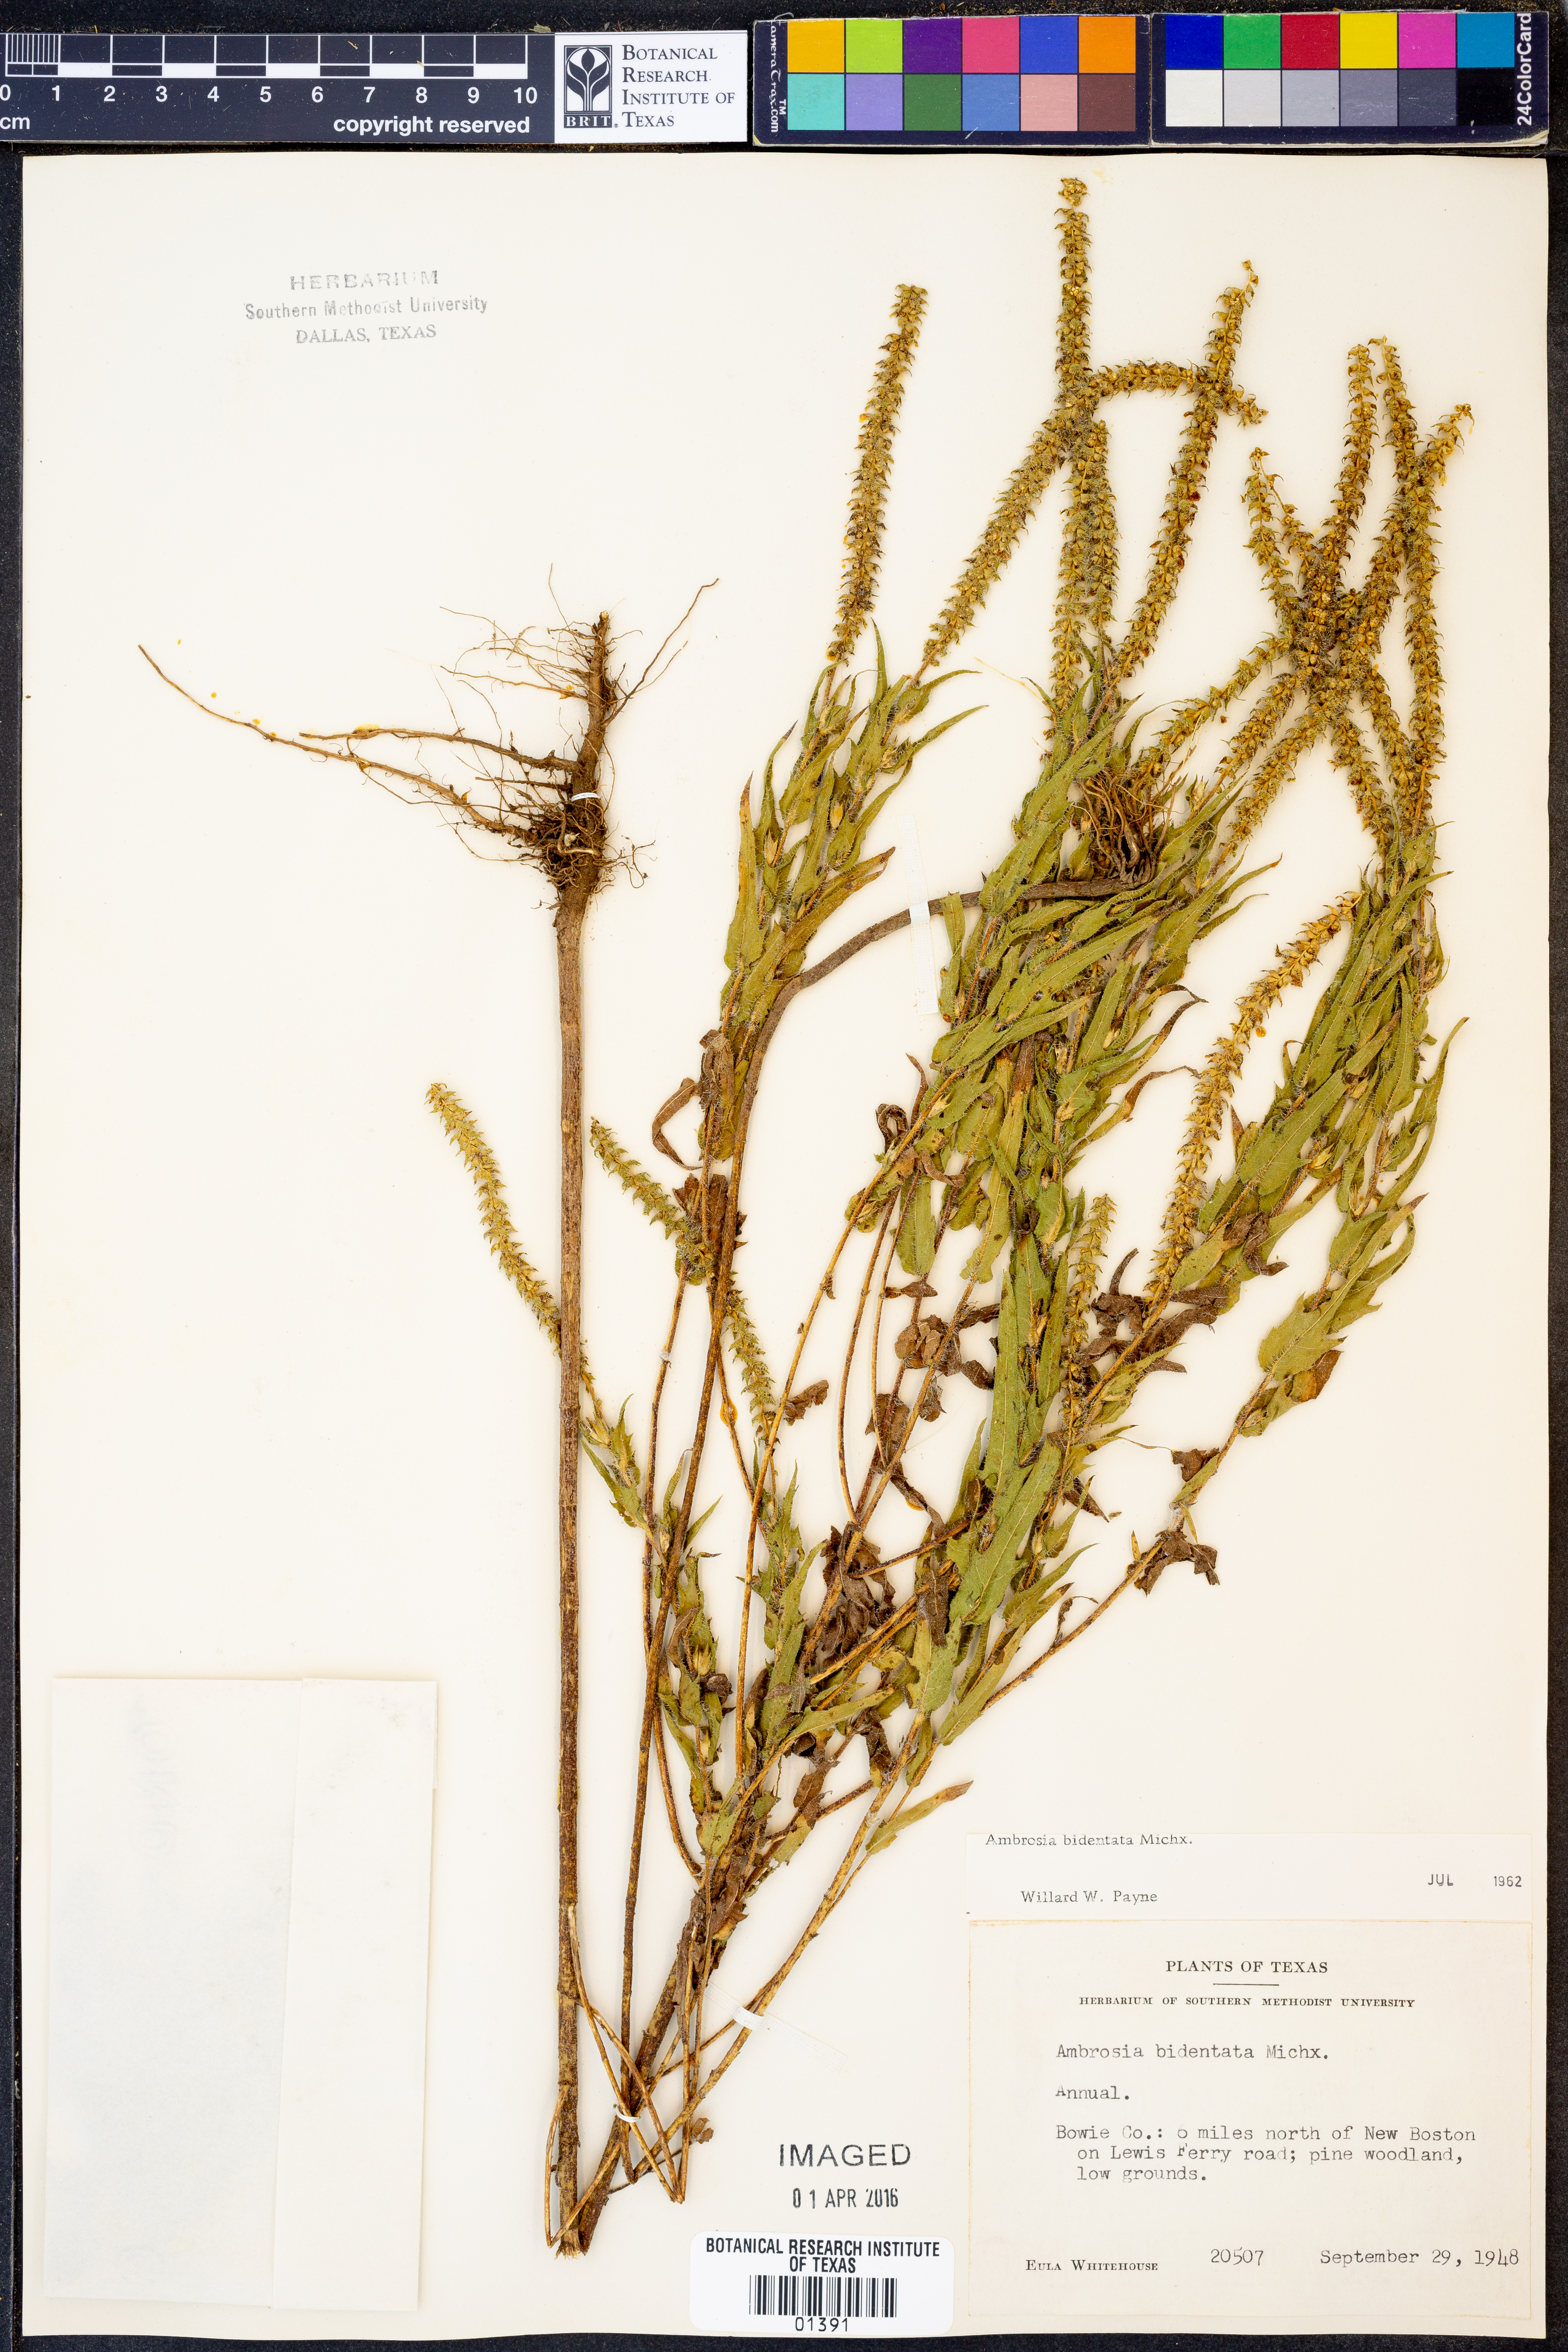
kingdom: Plantae
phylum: Tracheophyta
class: Magnoliopsida
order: Asterales
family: Asteraceae
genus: Ambrosia
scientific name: Ambrosia bidentata
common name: Southern ragweed
